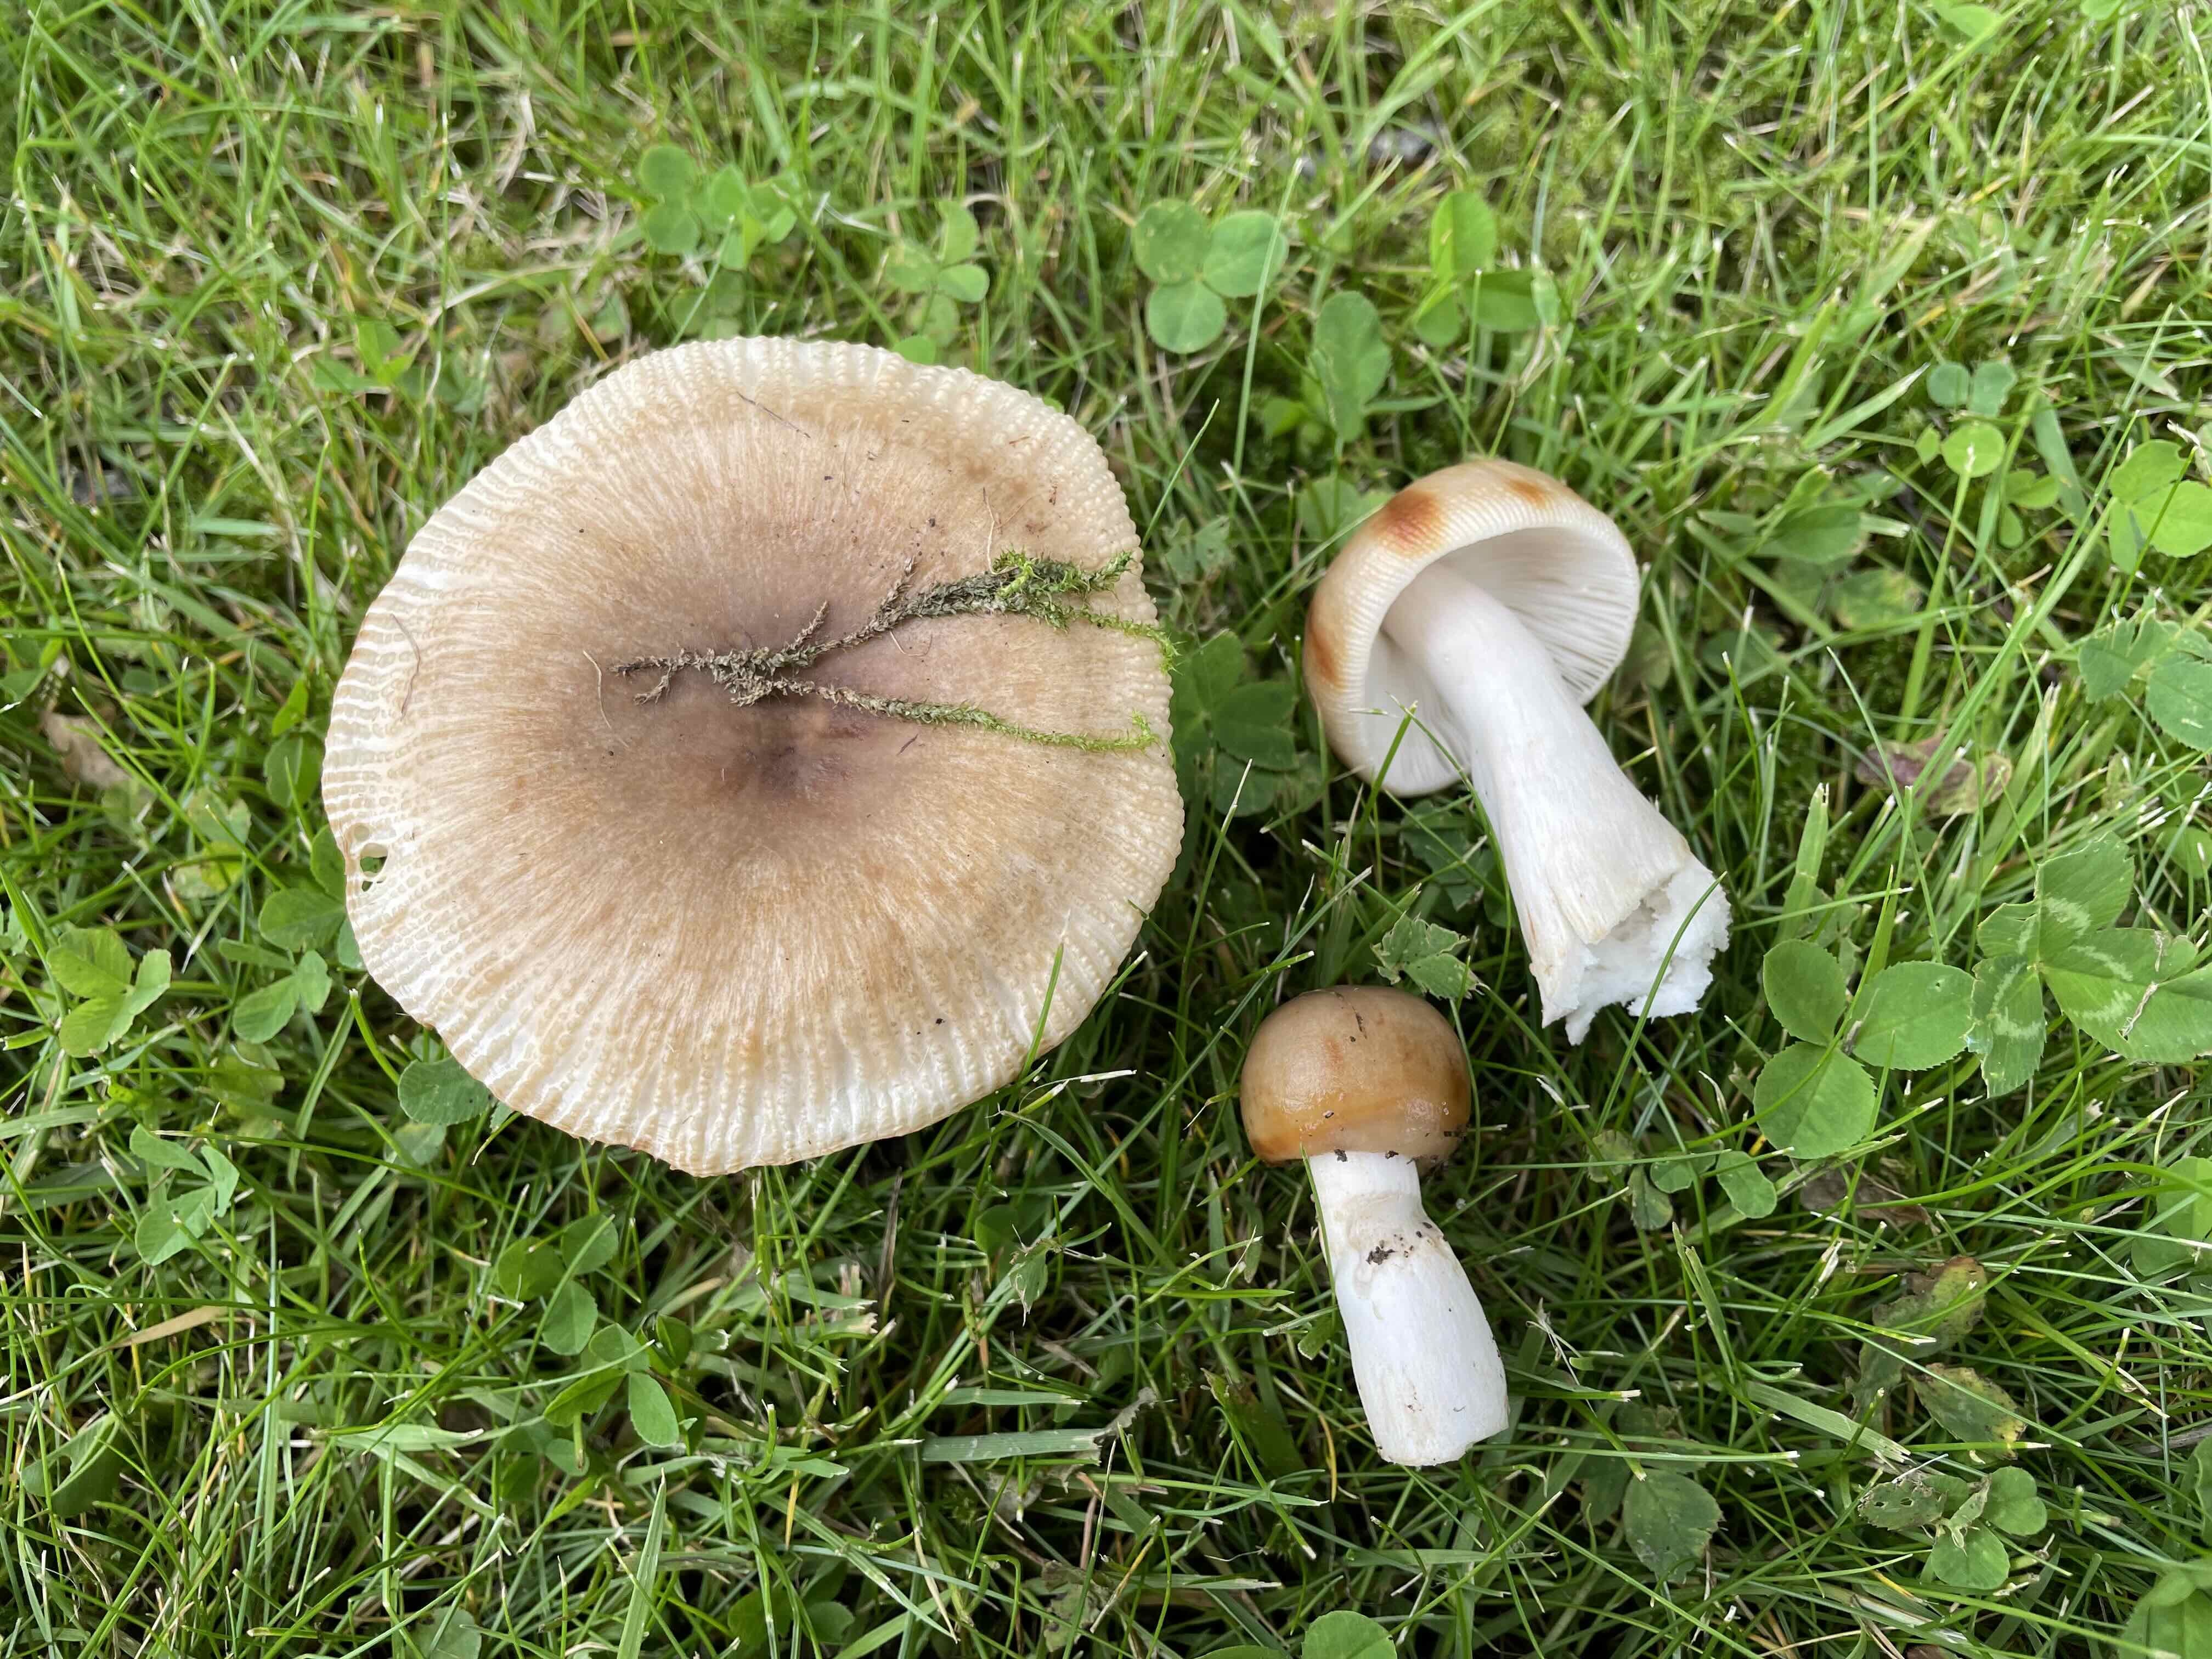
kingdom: Fungi
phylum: Basidiomycota
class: Agaricomycetes
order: Russulales
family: Russulaceae
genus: Russula
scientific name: Russula recondita
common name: mild kam-skørhat
